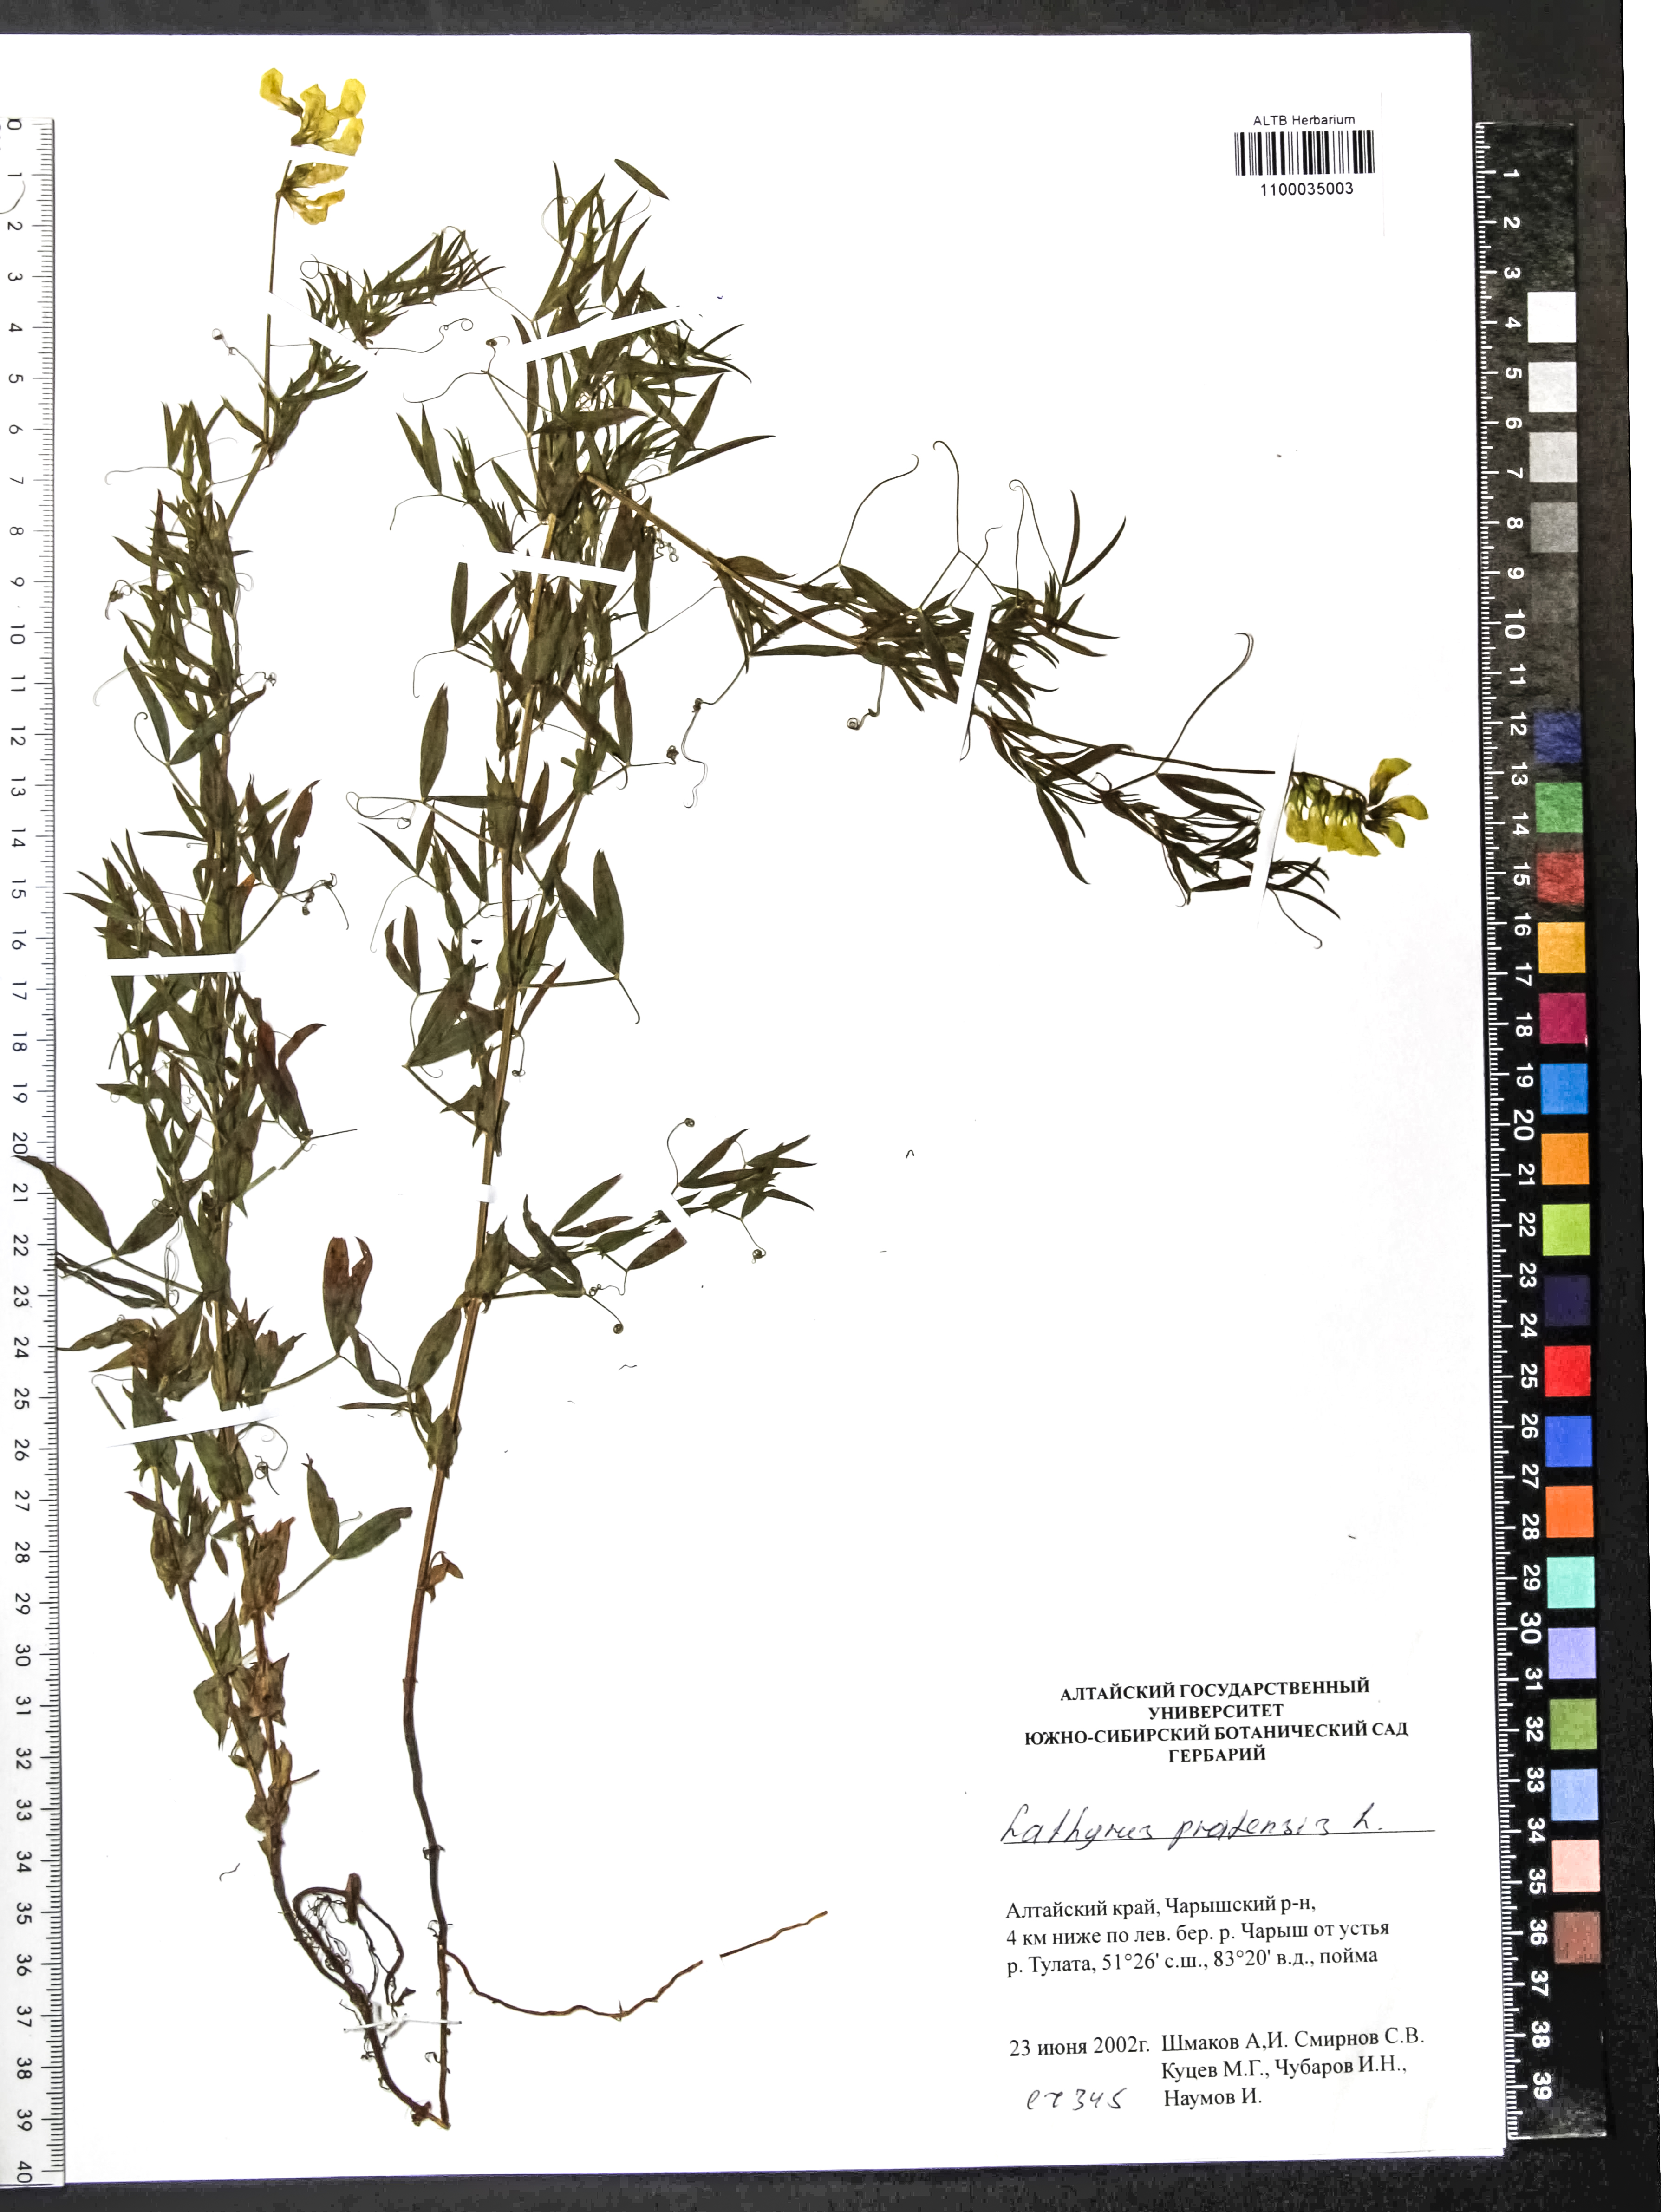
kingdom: Plantae
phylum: Tracheophyta
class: Magnoliopsida
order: Fabales
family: Fabaceae
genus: Lathyrus
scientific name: Lathyrus pratensis
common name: Meadow vetchling
